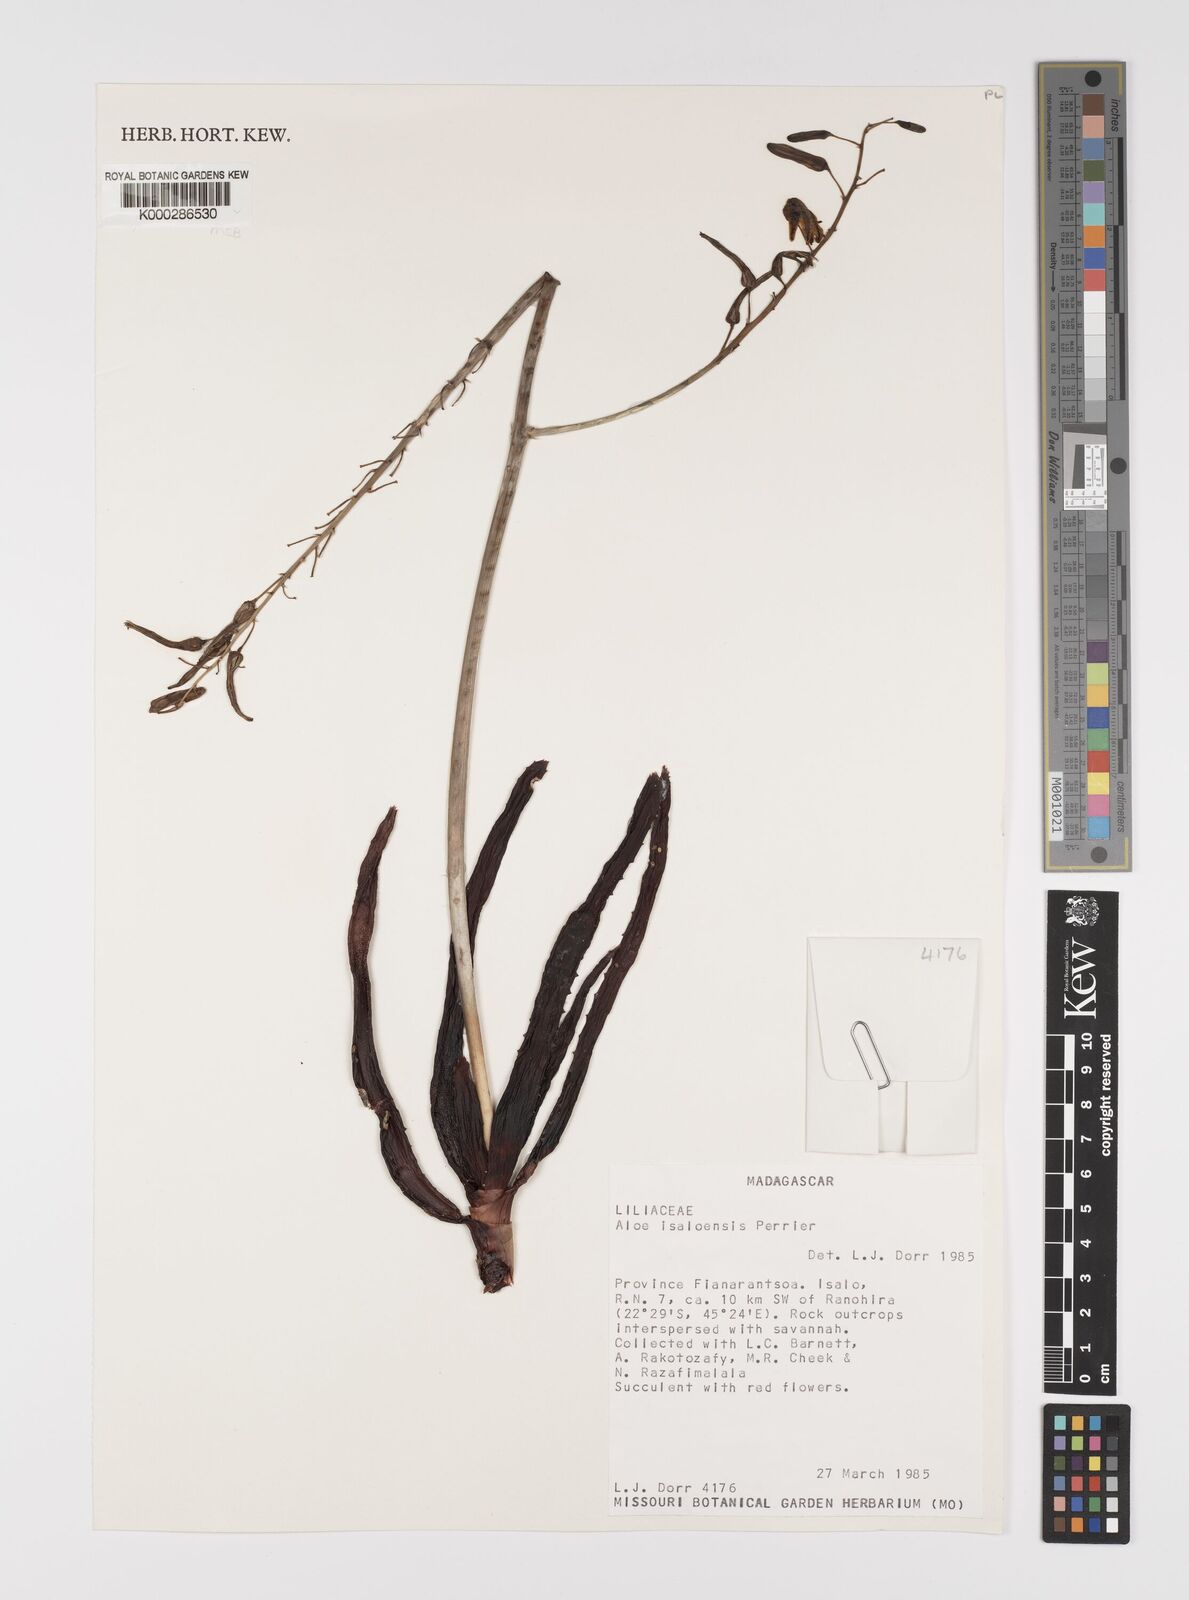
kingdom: Plantae
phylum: Tracheophyta
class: Liliopsida
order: Asparagales
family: Asphodelaceae
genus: Aloe
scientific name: Aloe
